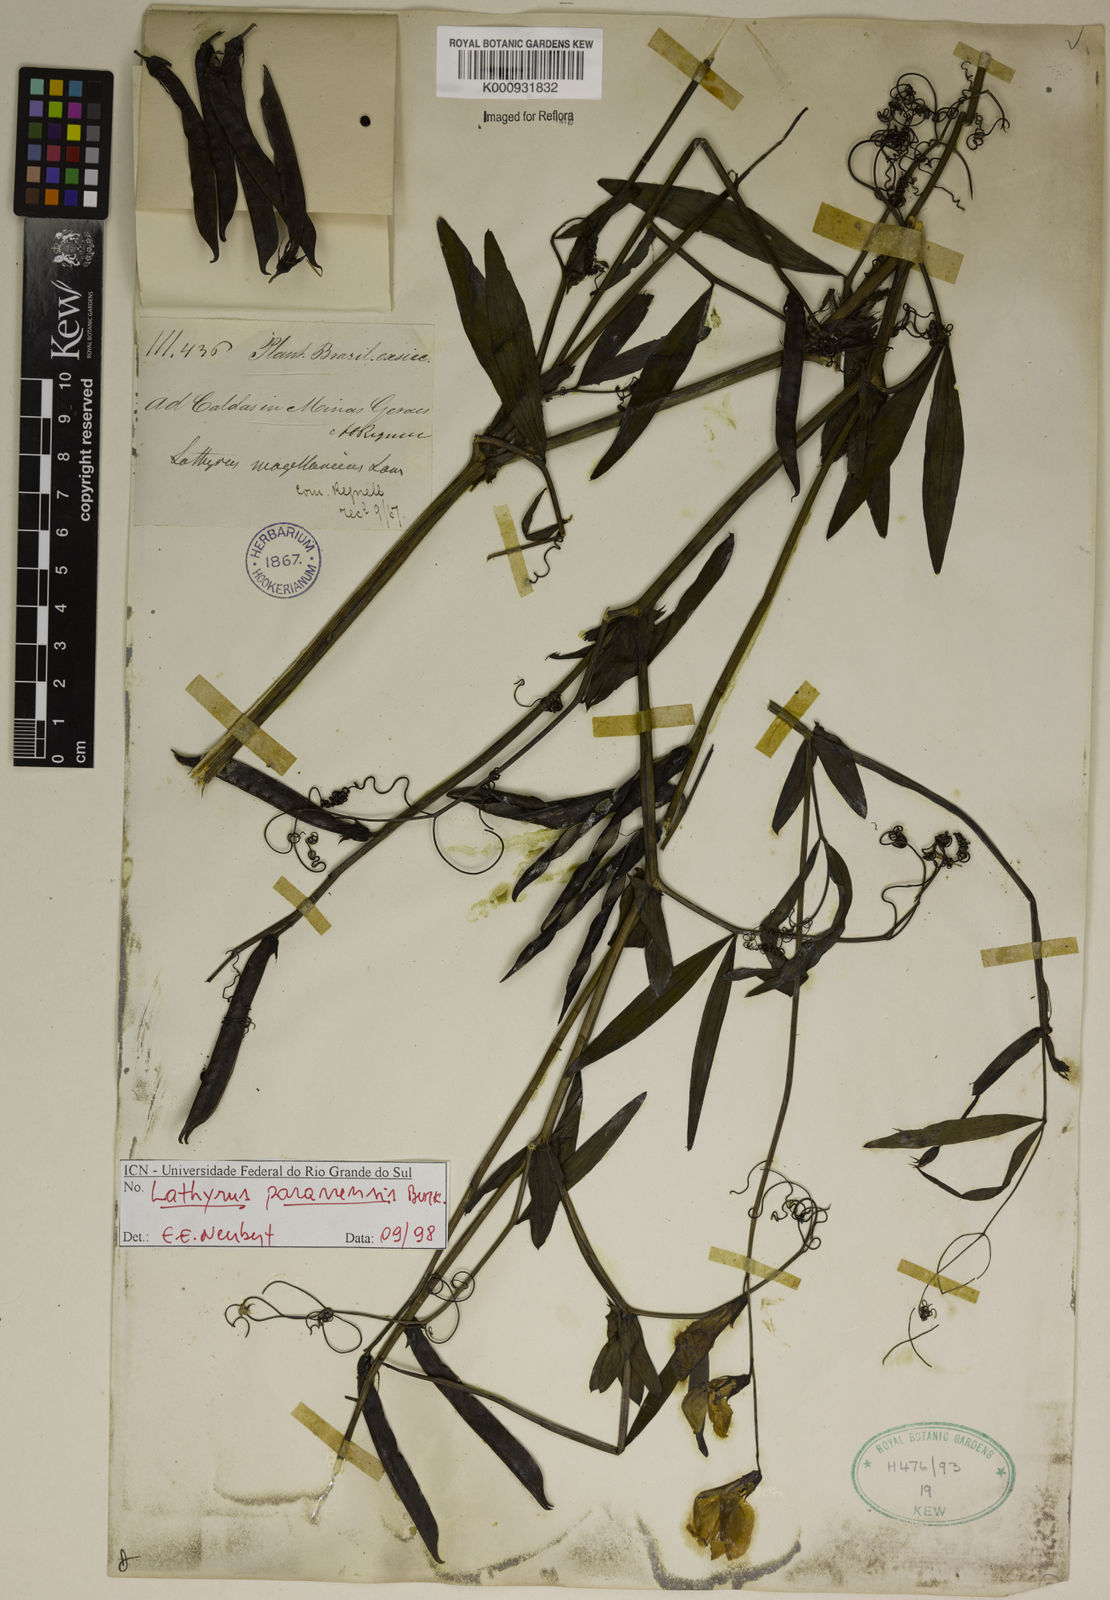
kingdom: Plantae
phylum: Tracheophyta
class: Magnoliopsida
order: Fabales
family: Fabaceae
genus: Lathyrus
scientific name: Lathyrus paranensis
